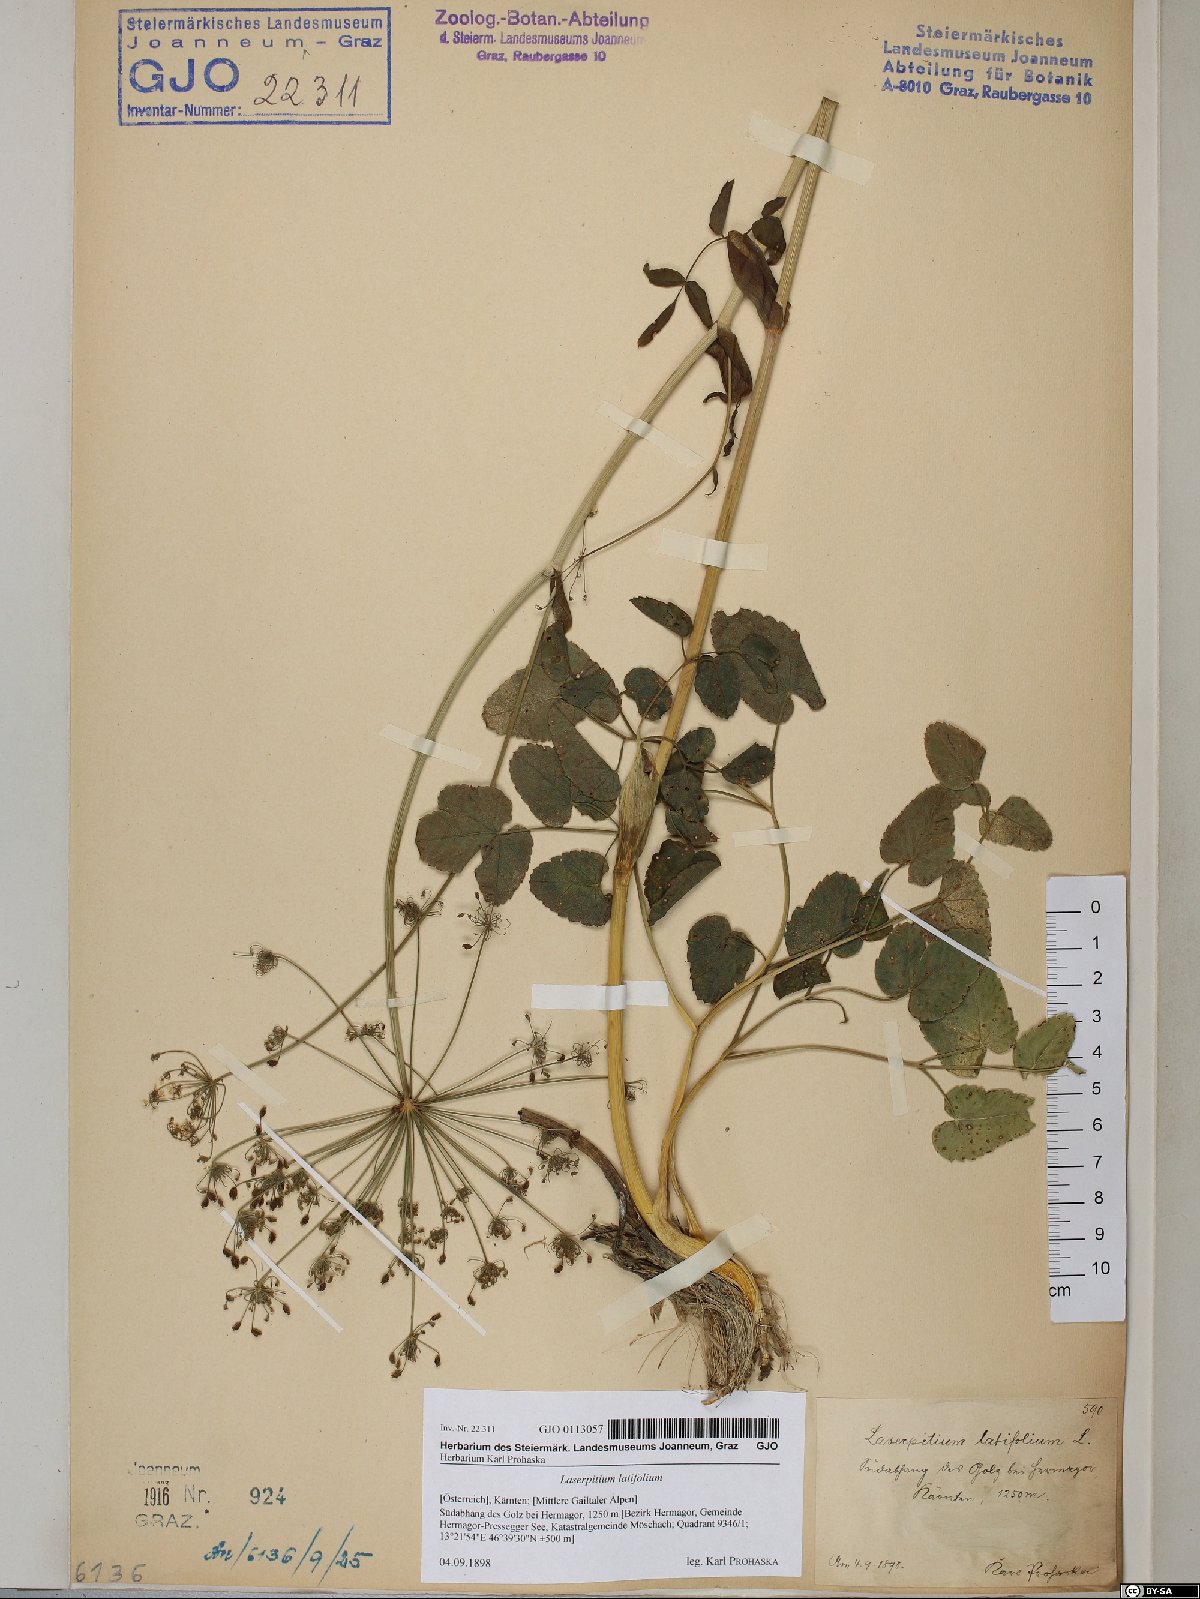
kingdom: Plantae
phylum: Tracheophyta
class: Magnoliopsida
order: Apiales
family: Apiaceae
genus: Laserpitium
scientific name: Laserpitium latifolium
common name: Broadleaf sermountain
